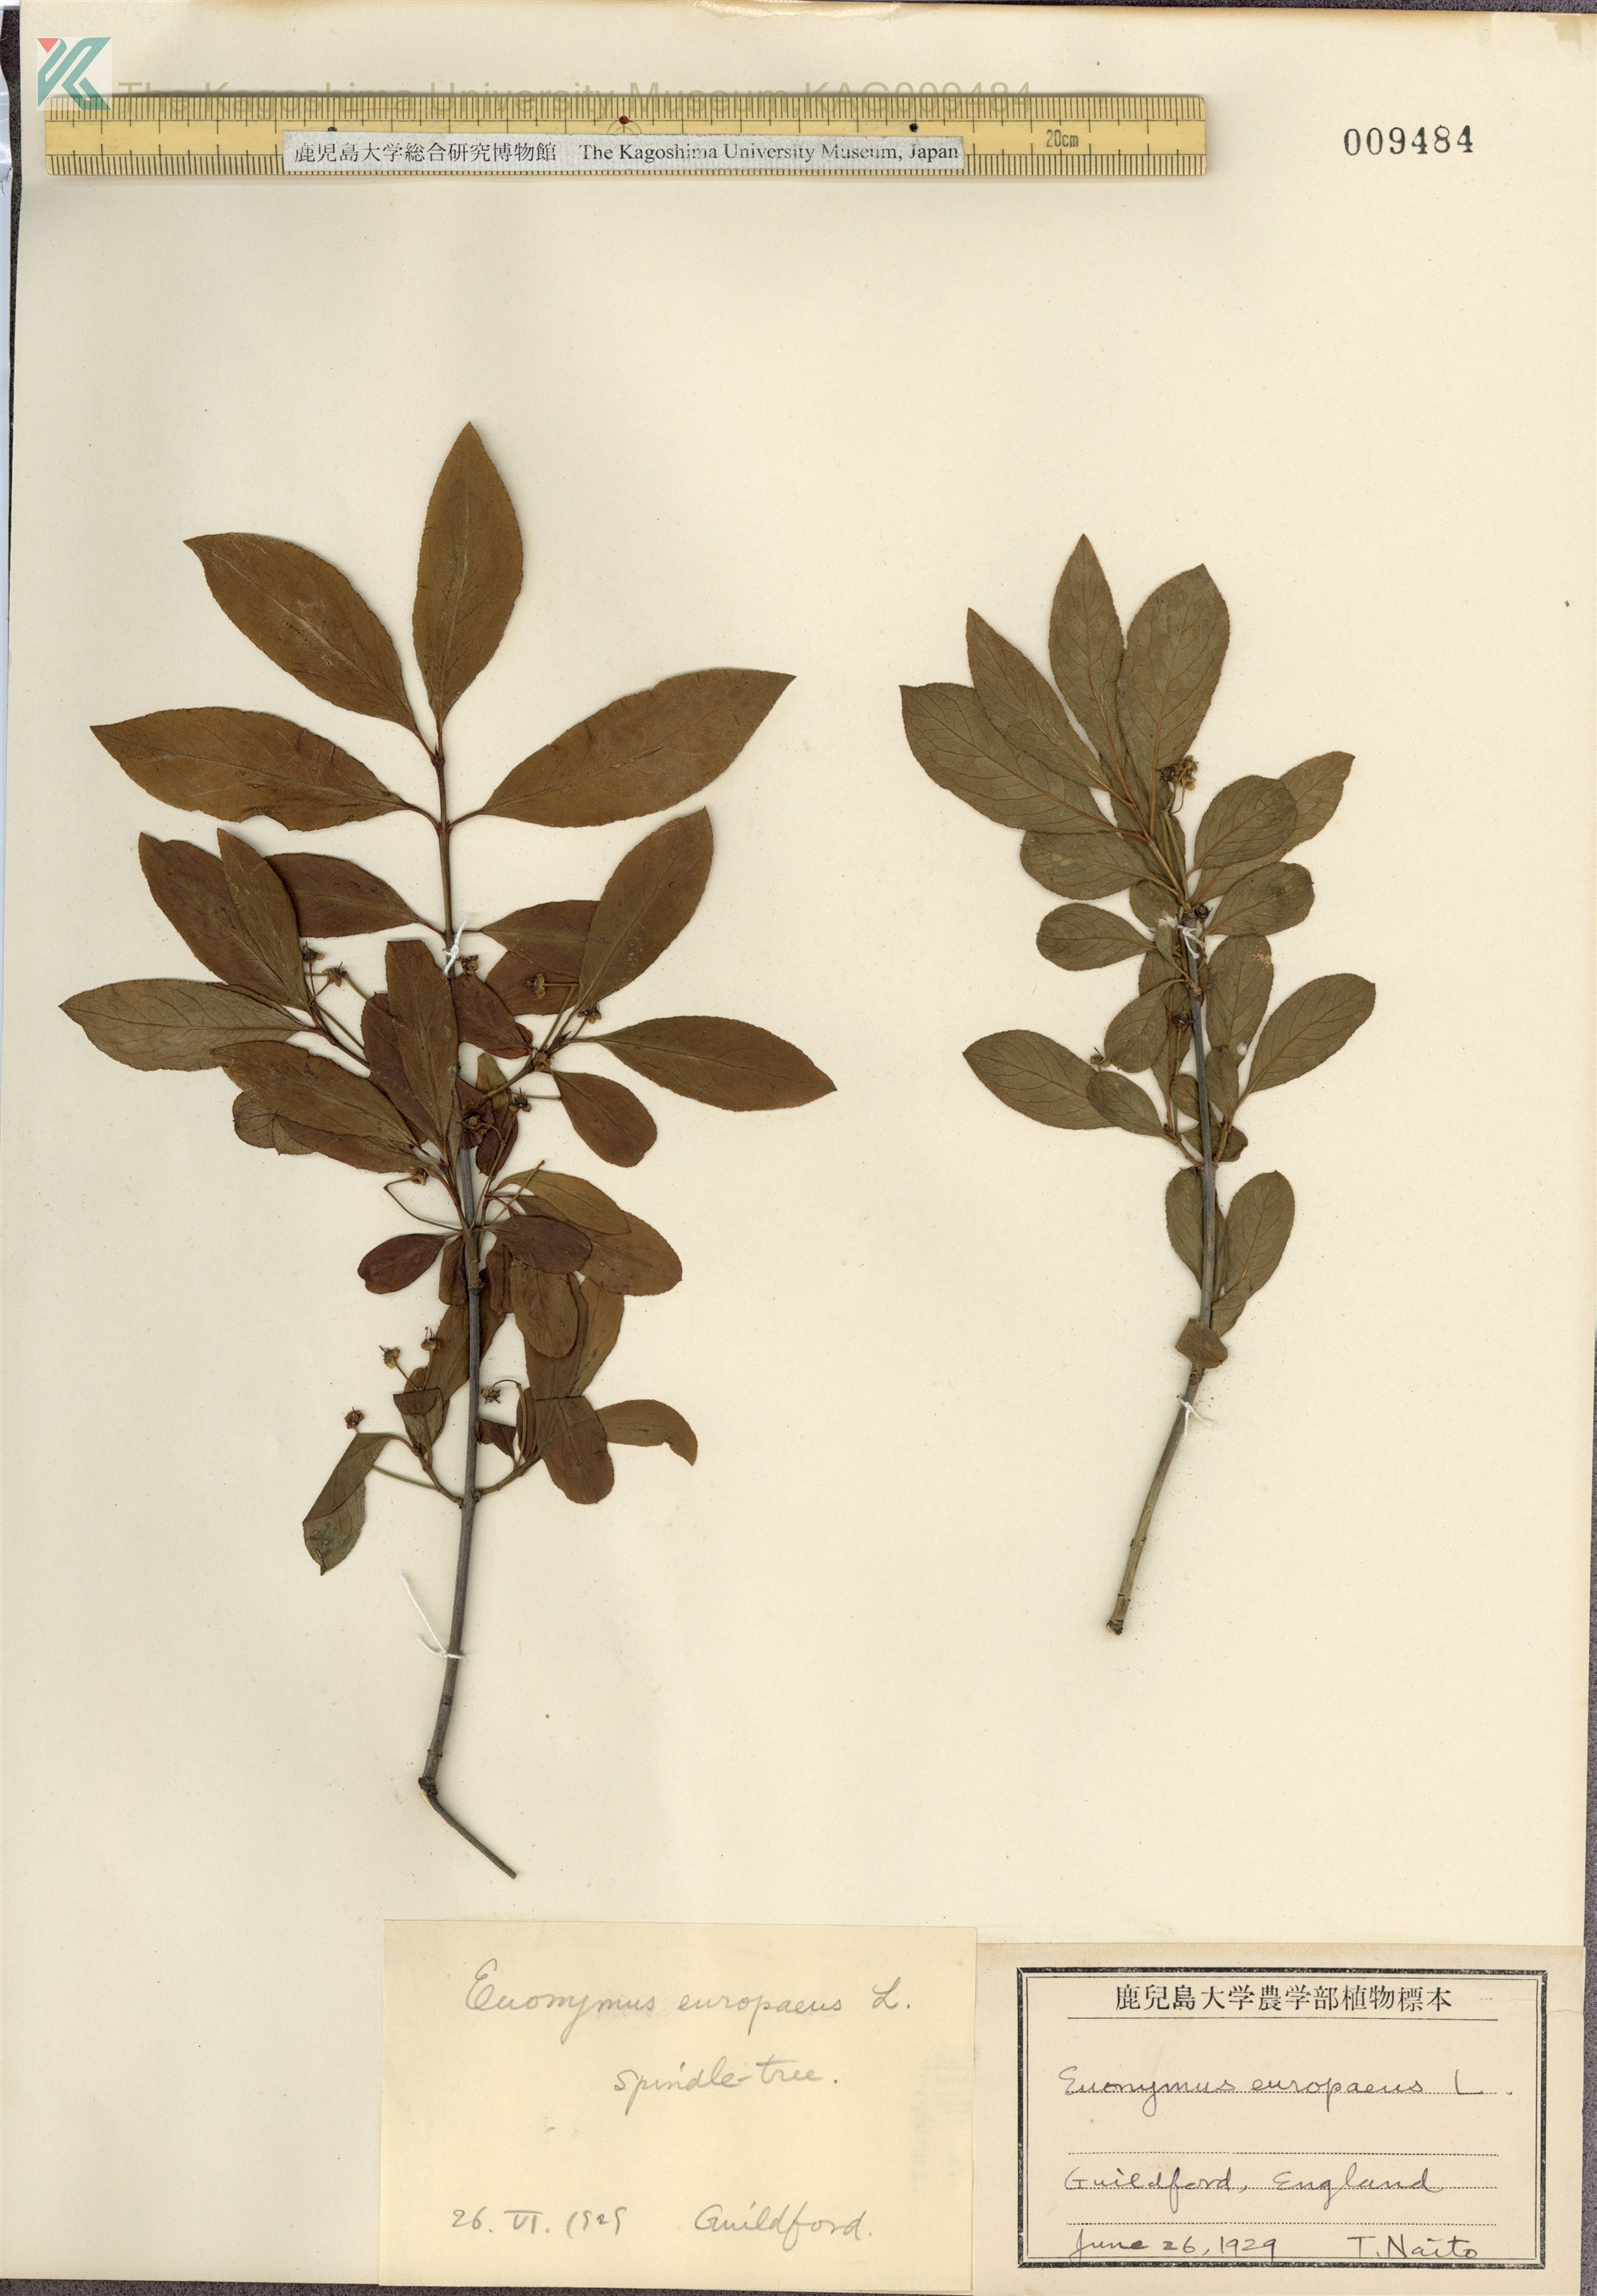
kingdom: Plantae
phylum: Tracheophyta
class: Magnoliopsida
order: Celastrales
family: Celastraceae
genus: Euonymus
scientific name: Euonymus europaeus
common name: Spindle
